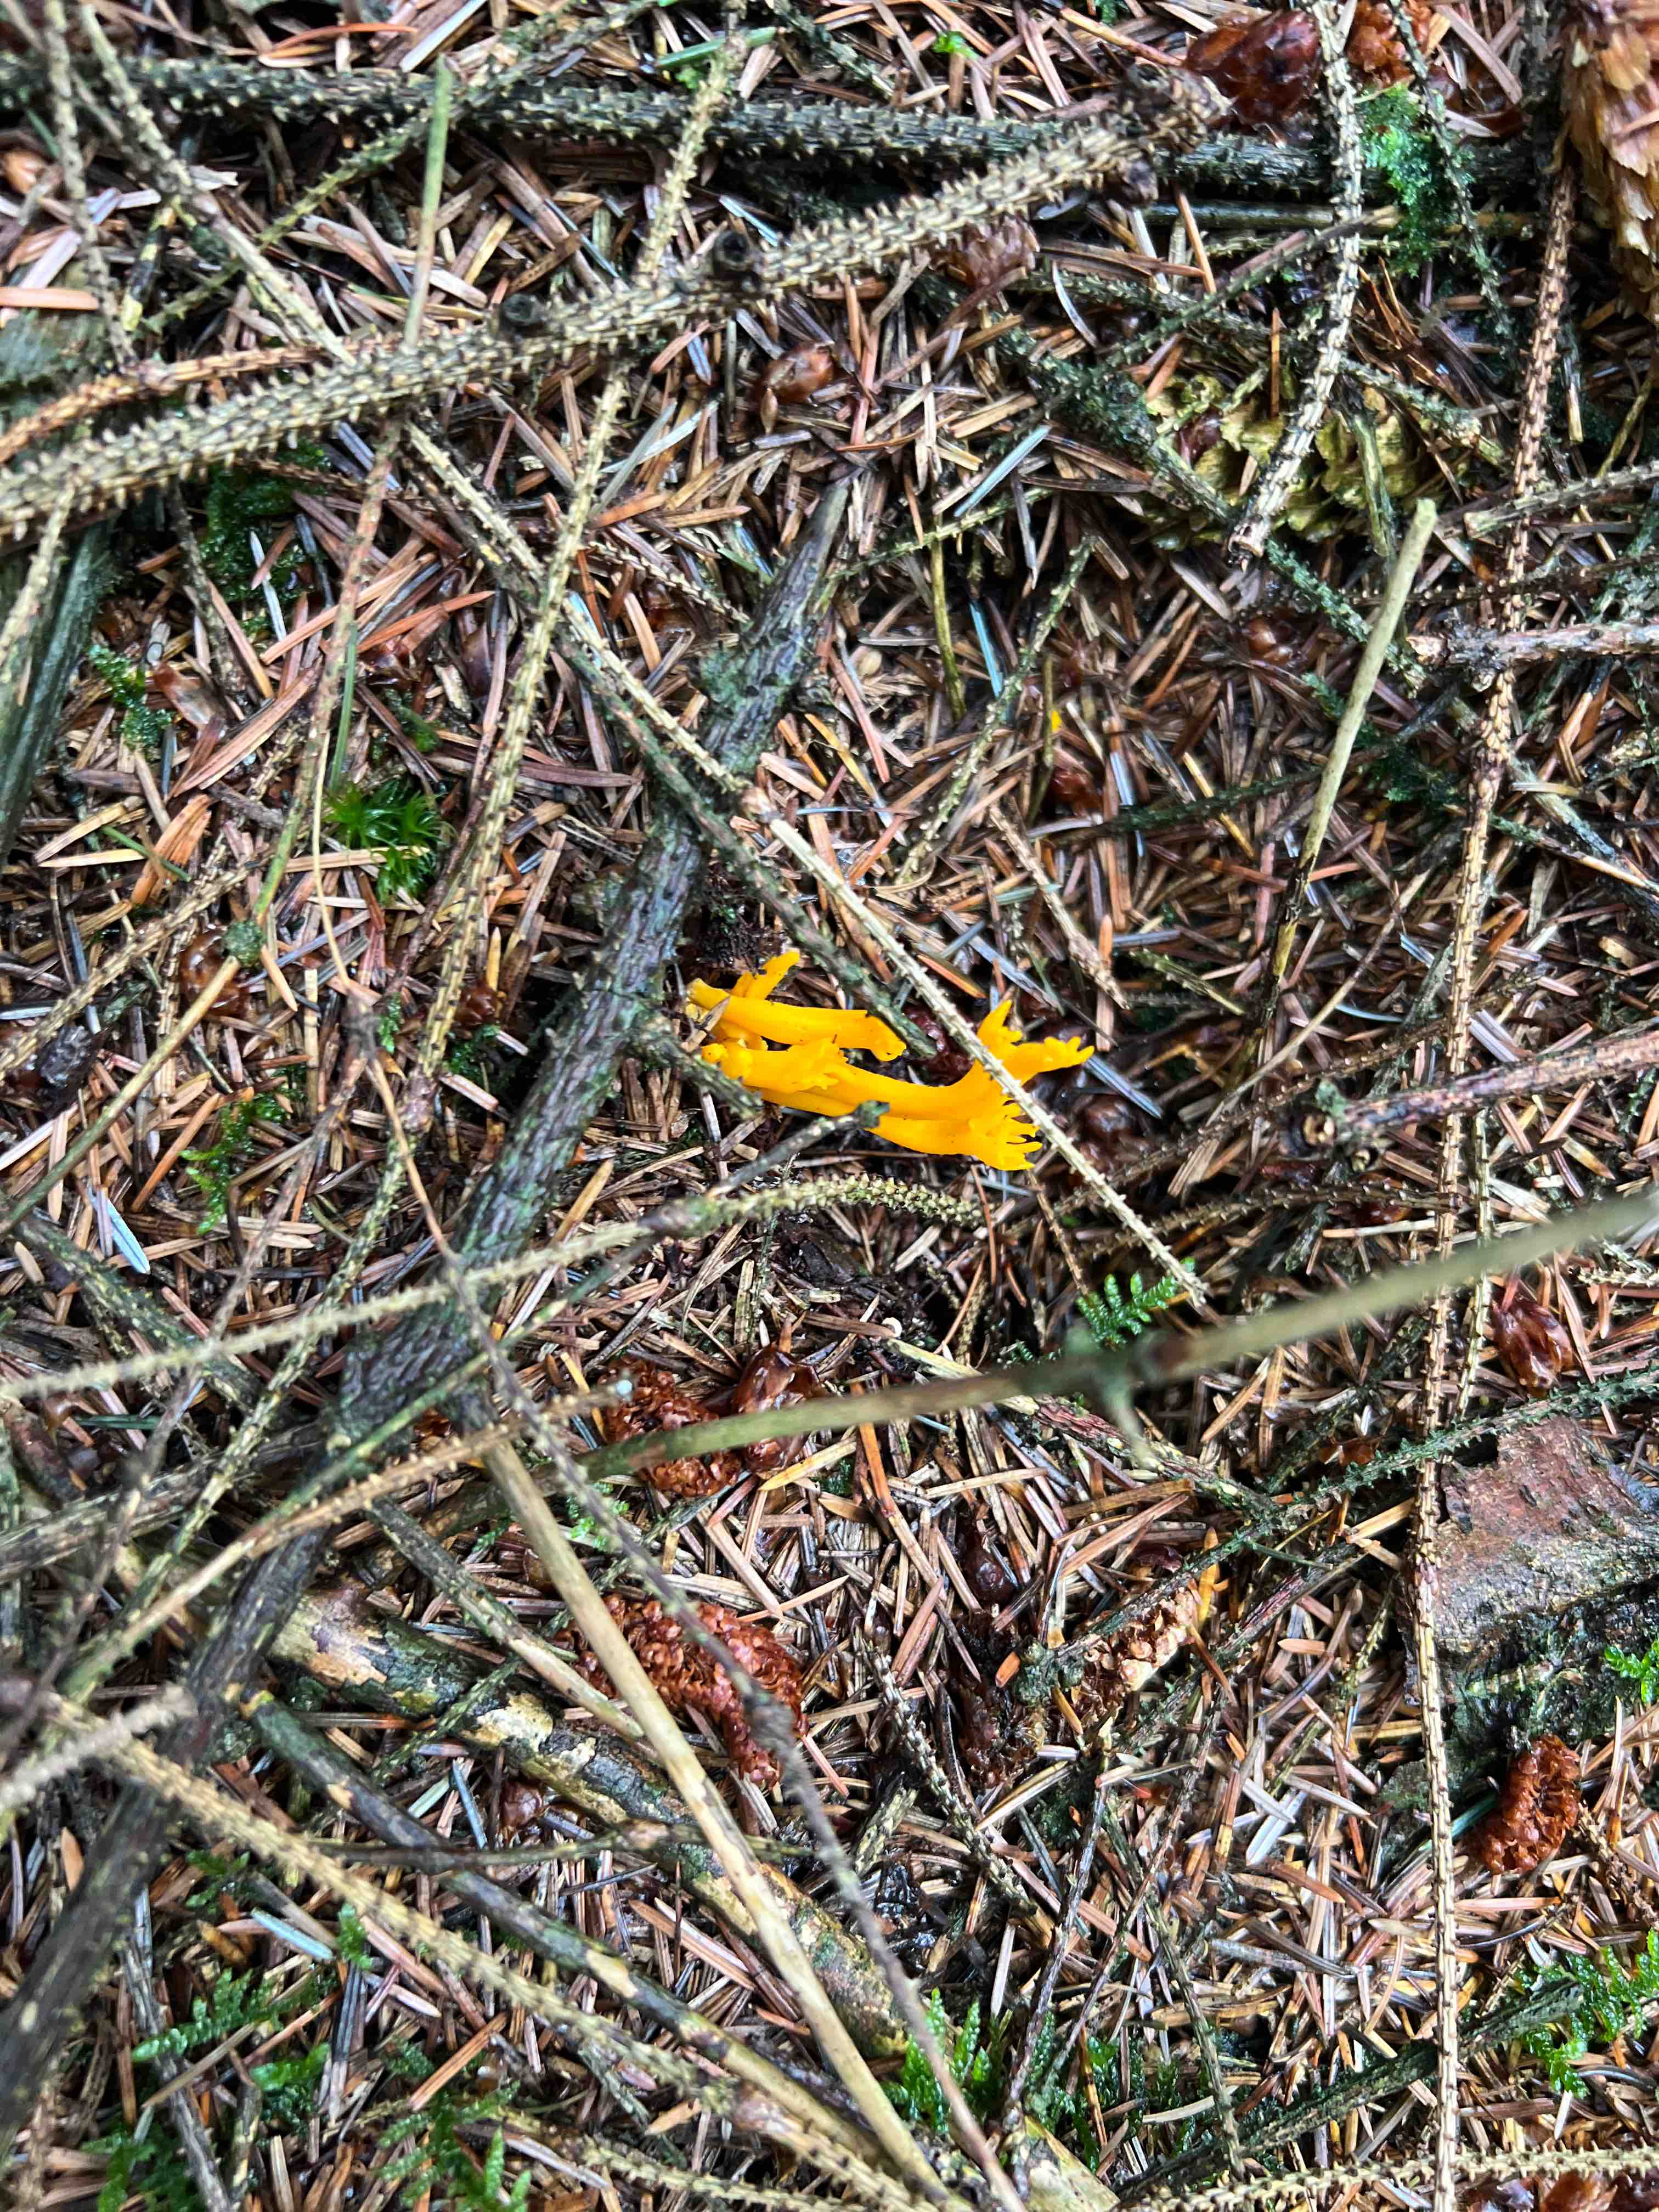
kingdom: Fungi
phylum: Basidiomycota
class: Dacrymycetes
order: Dacrymycetales
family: Dacrymycetaceae
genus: Calocera
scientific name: Calocera viscosa
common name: almindelig guldgaffel
